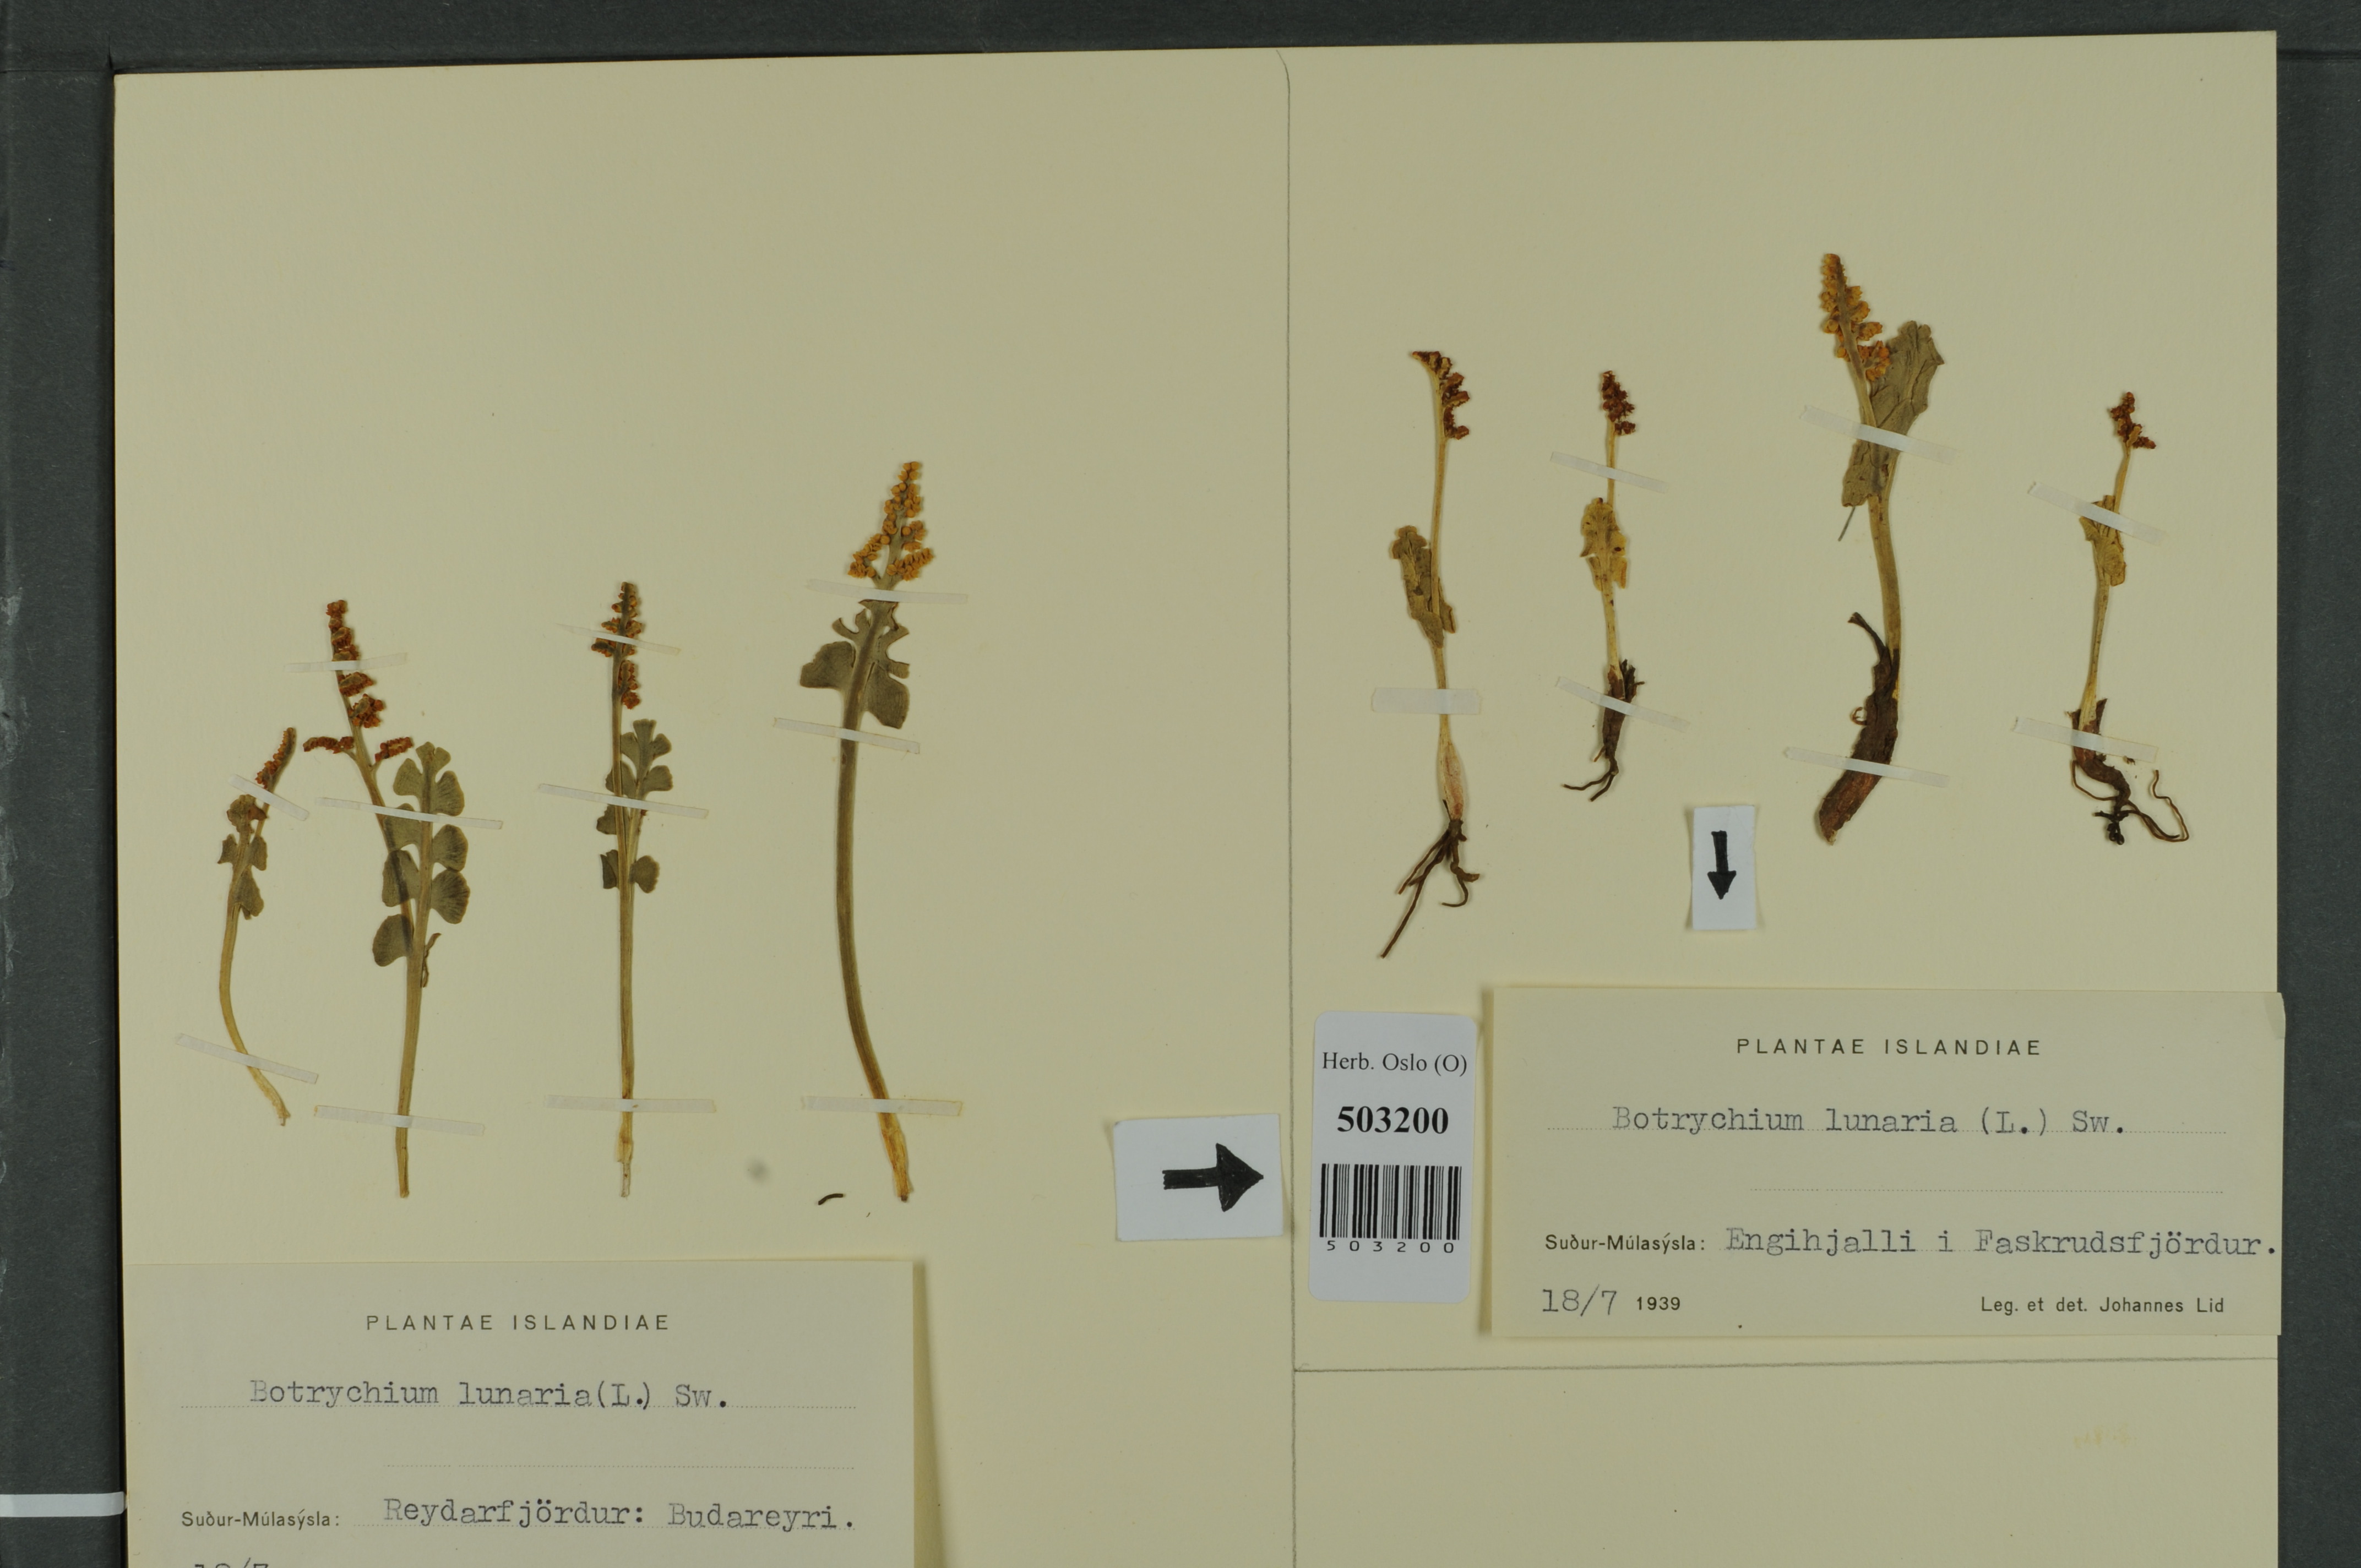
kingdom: Plantae
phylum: Tracheophyta
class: Polypodiopsida
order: Ophioglossales
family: Ophioglossaceae
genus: Botrychium
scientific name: Botrychium lunaria
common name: Moonwort
